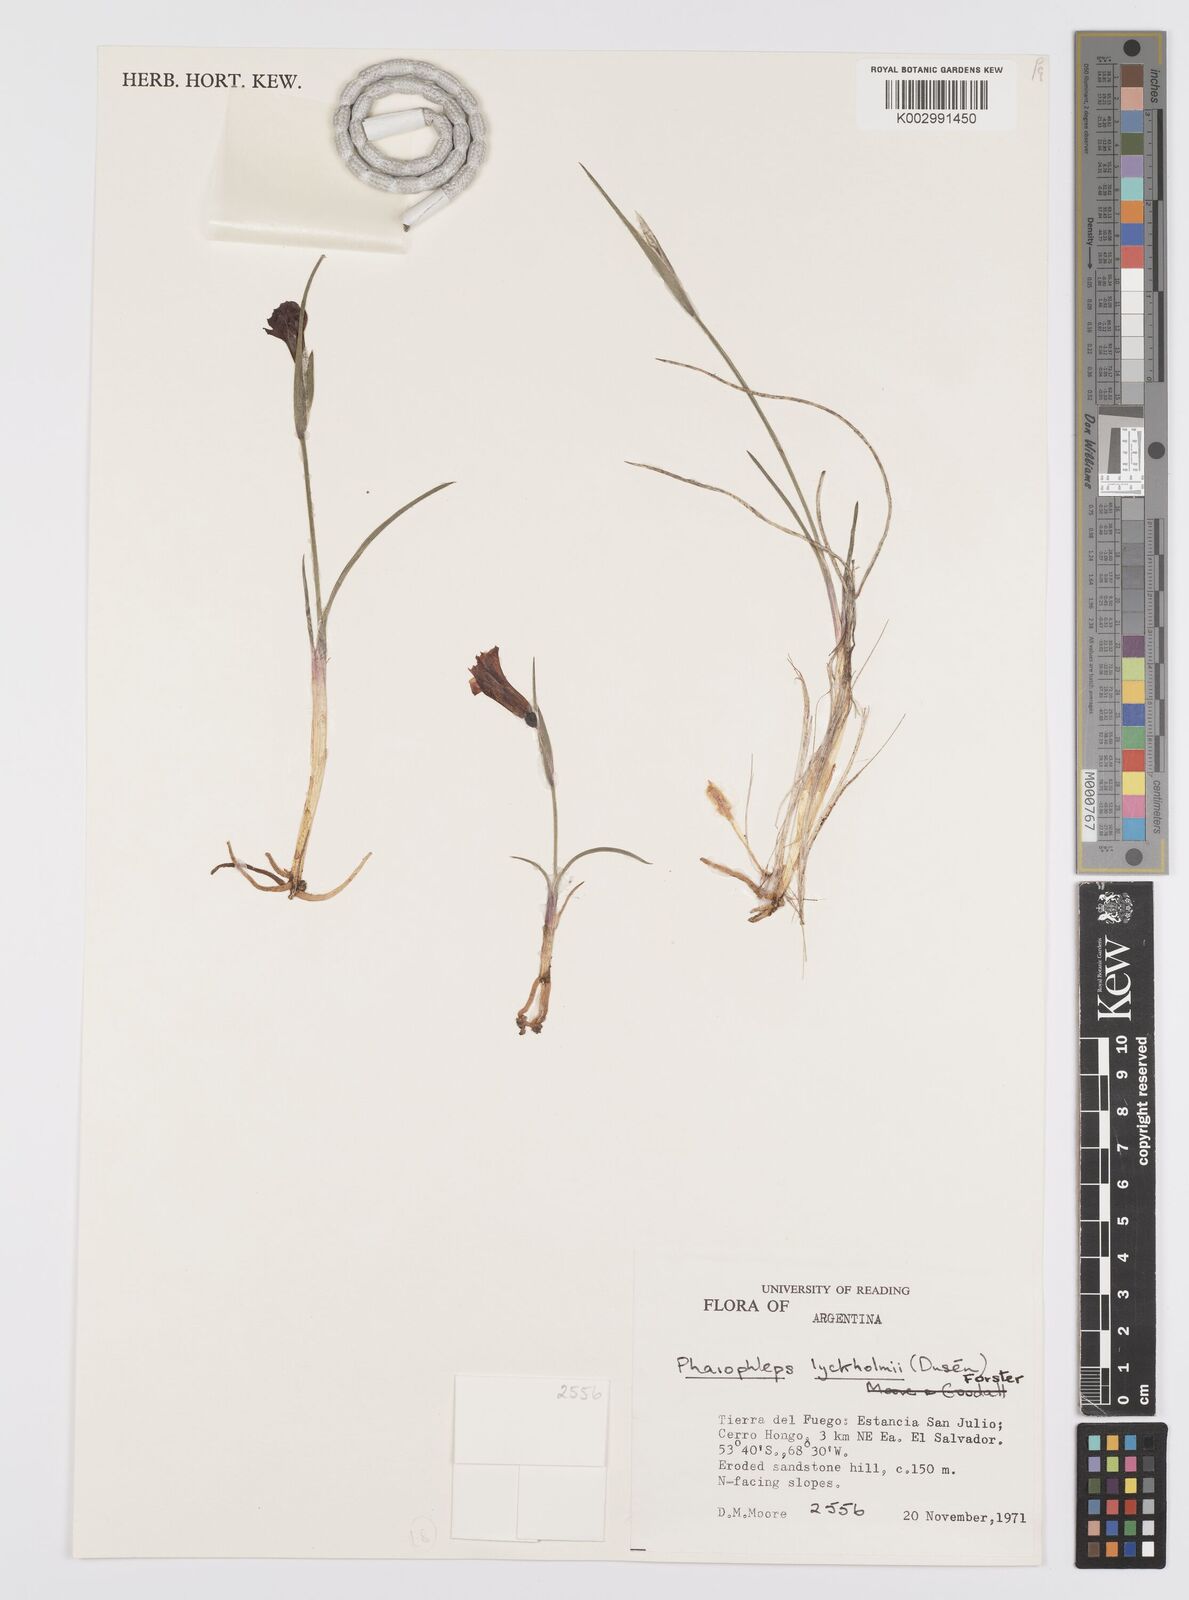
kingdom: Plantae
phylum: Tracheophyta
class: Liliopsida
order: Asparagales
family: Iridaceae
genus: Olsynium
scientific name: Olsynium lyckholmii
